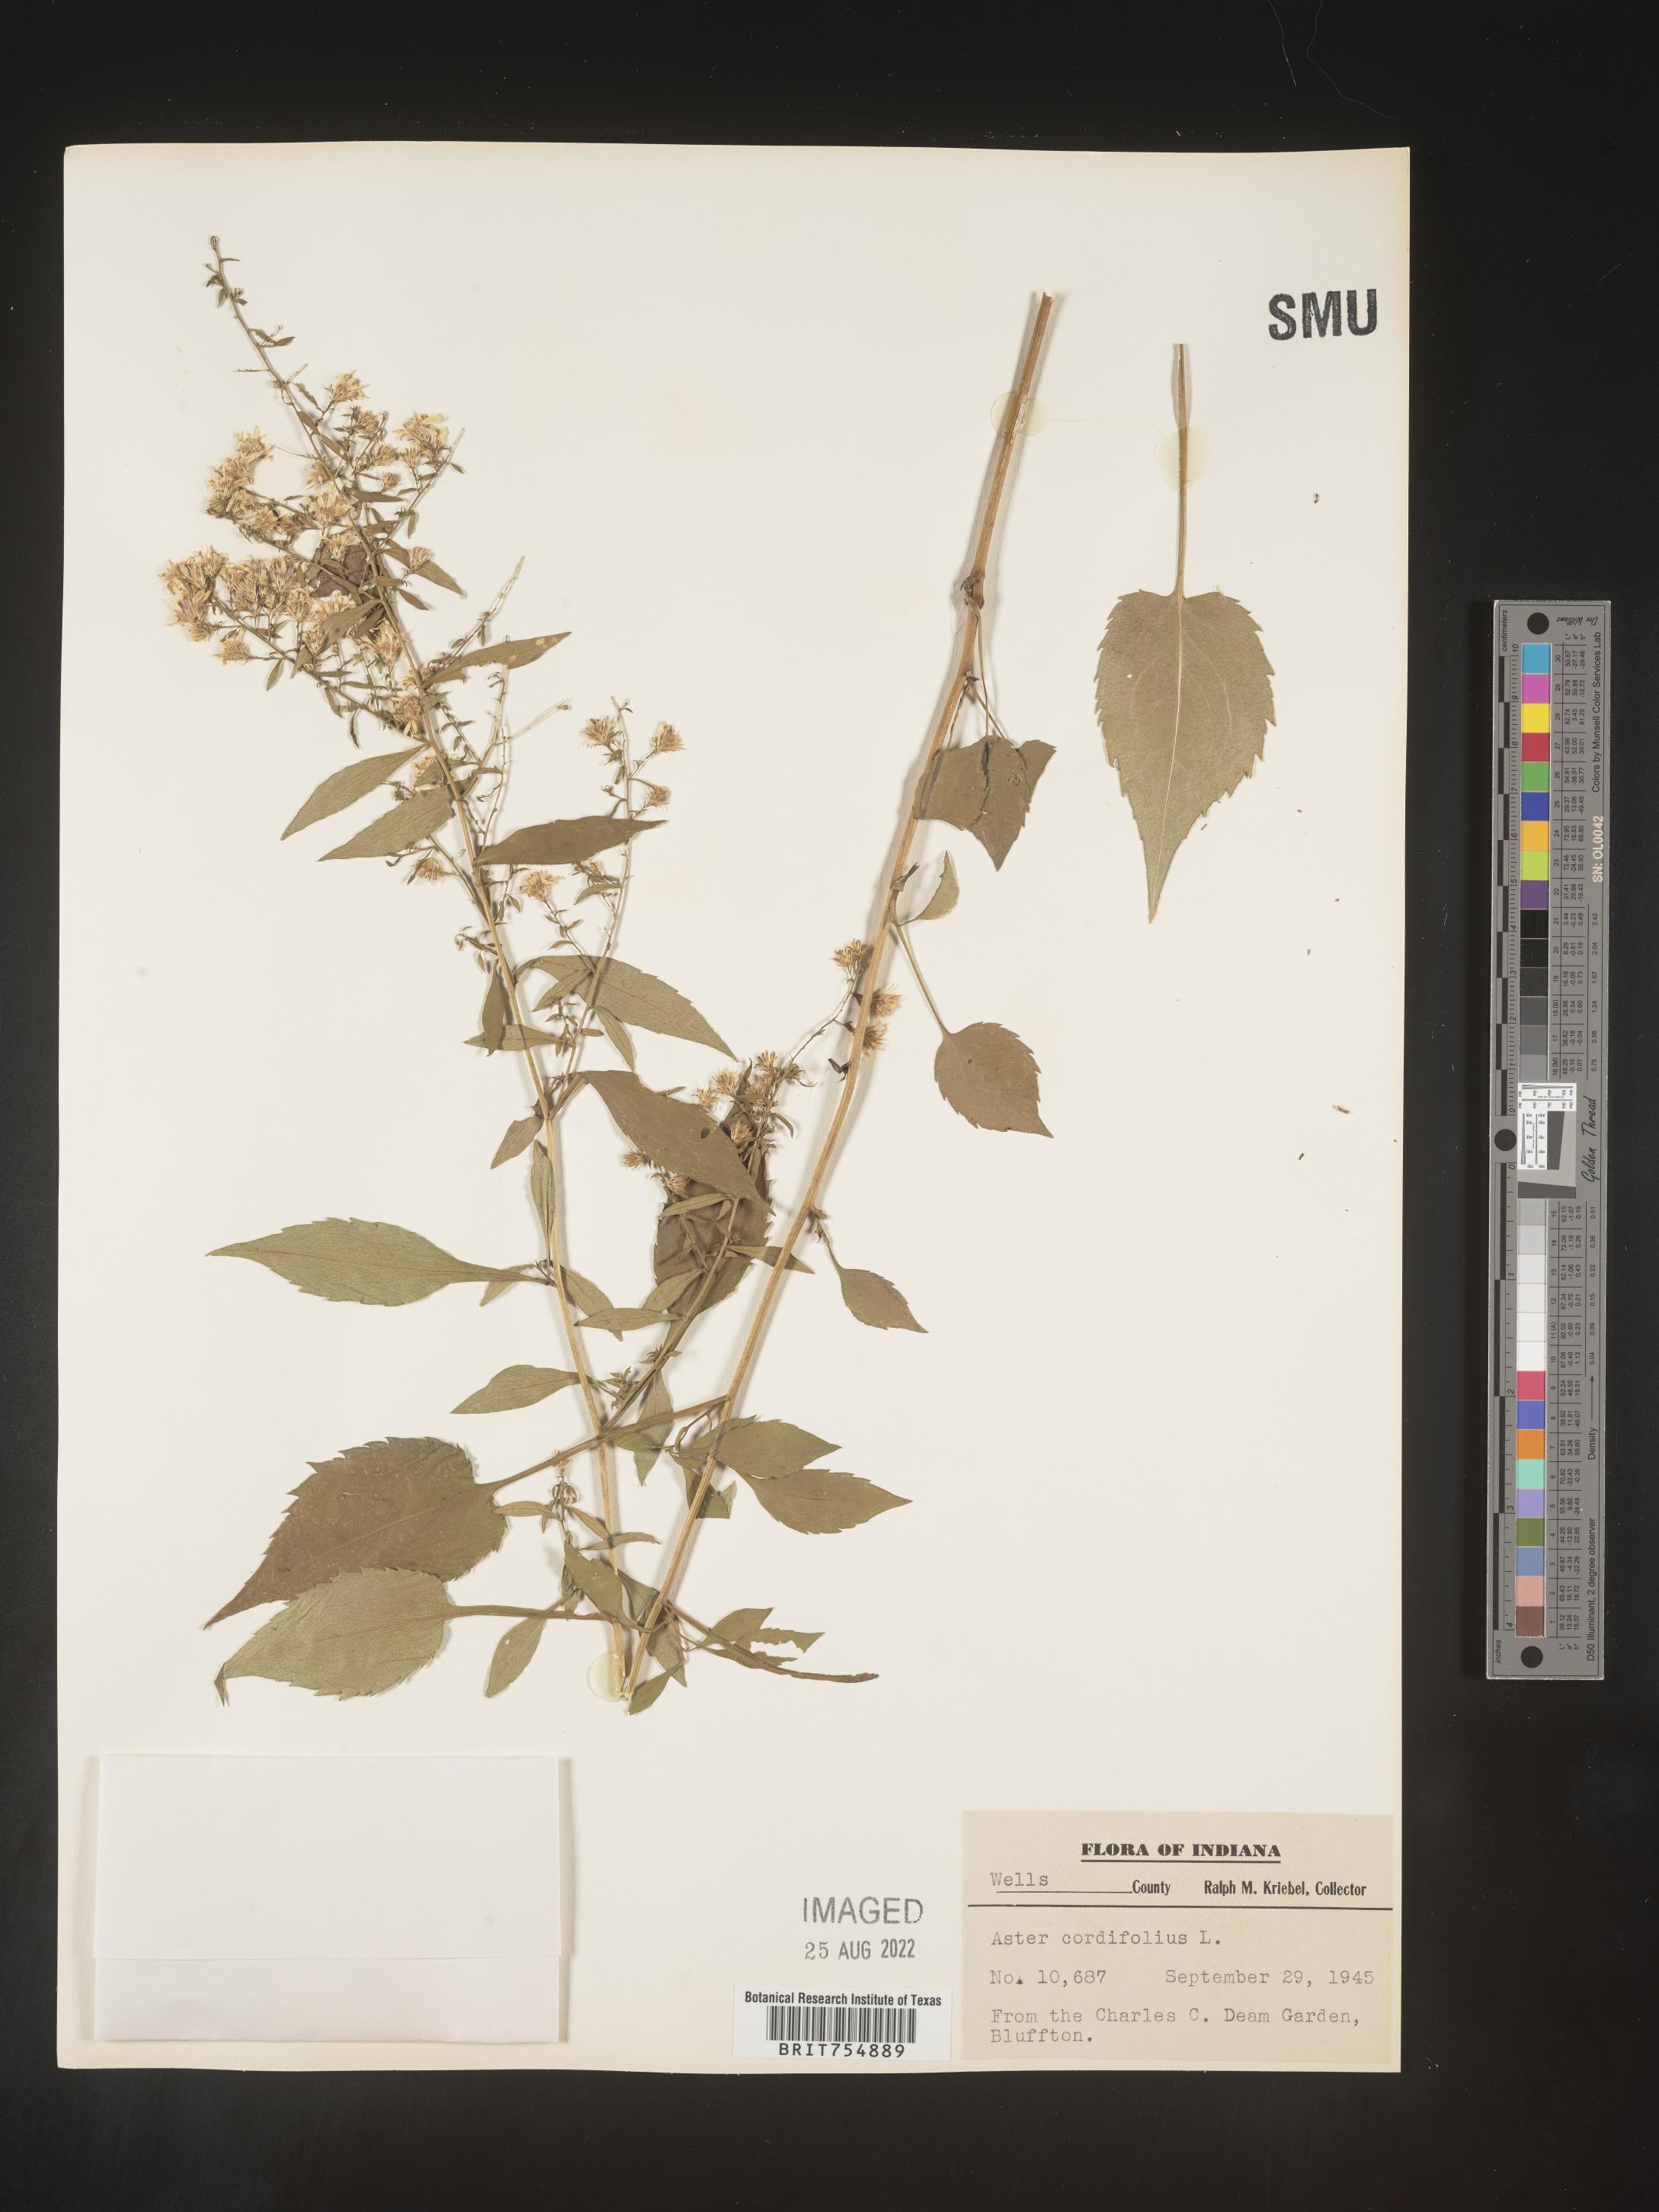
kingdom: Plantae
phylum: Tracheophyta
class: Magnoliopsida
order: Asterales
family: Asteraceae
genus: Symphyotrichum
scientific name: Symphyotrichum
